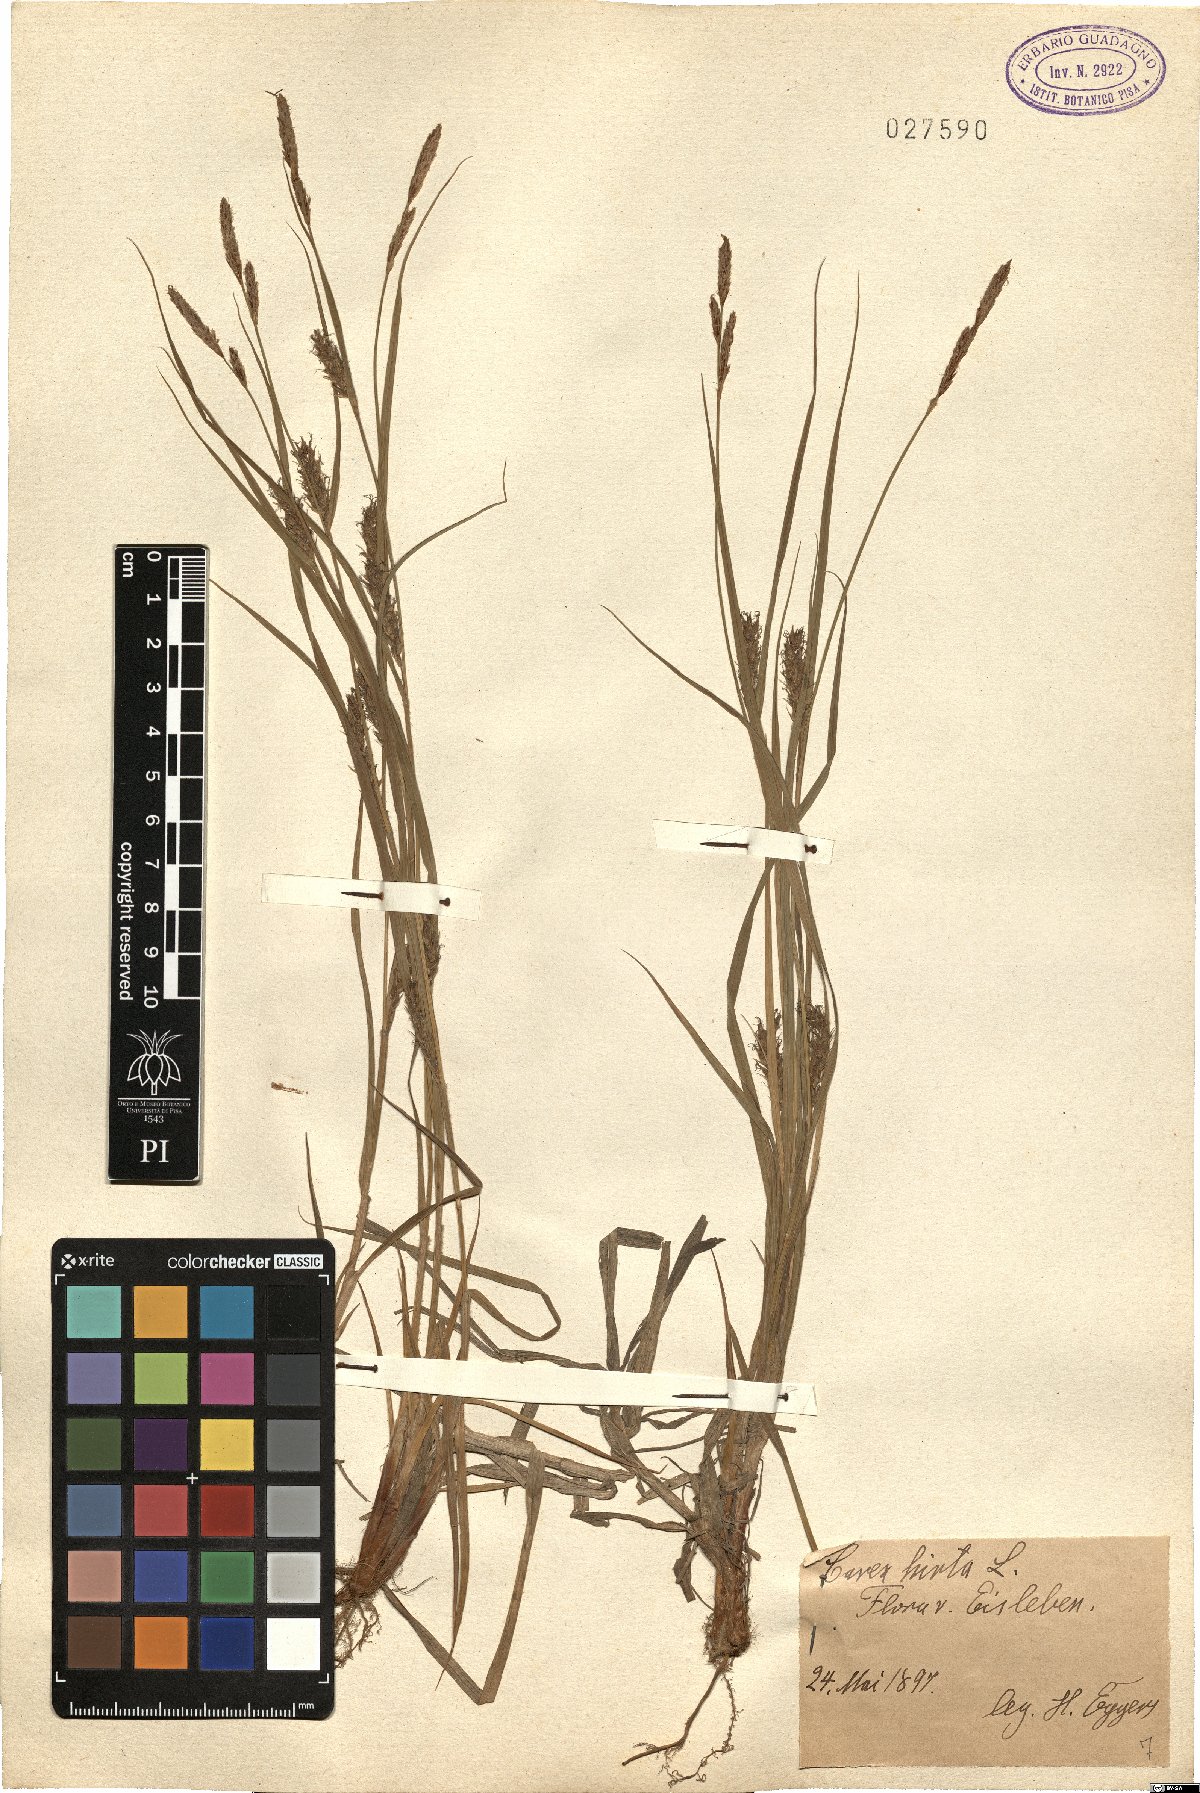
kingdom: Plantae
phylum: Tracheophyta
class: Liliopsida
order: Poales
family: Cyperaceae
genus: Carex
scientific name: Carex hirta
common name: Hairy sedge
